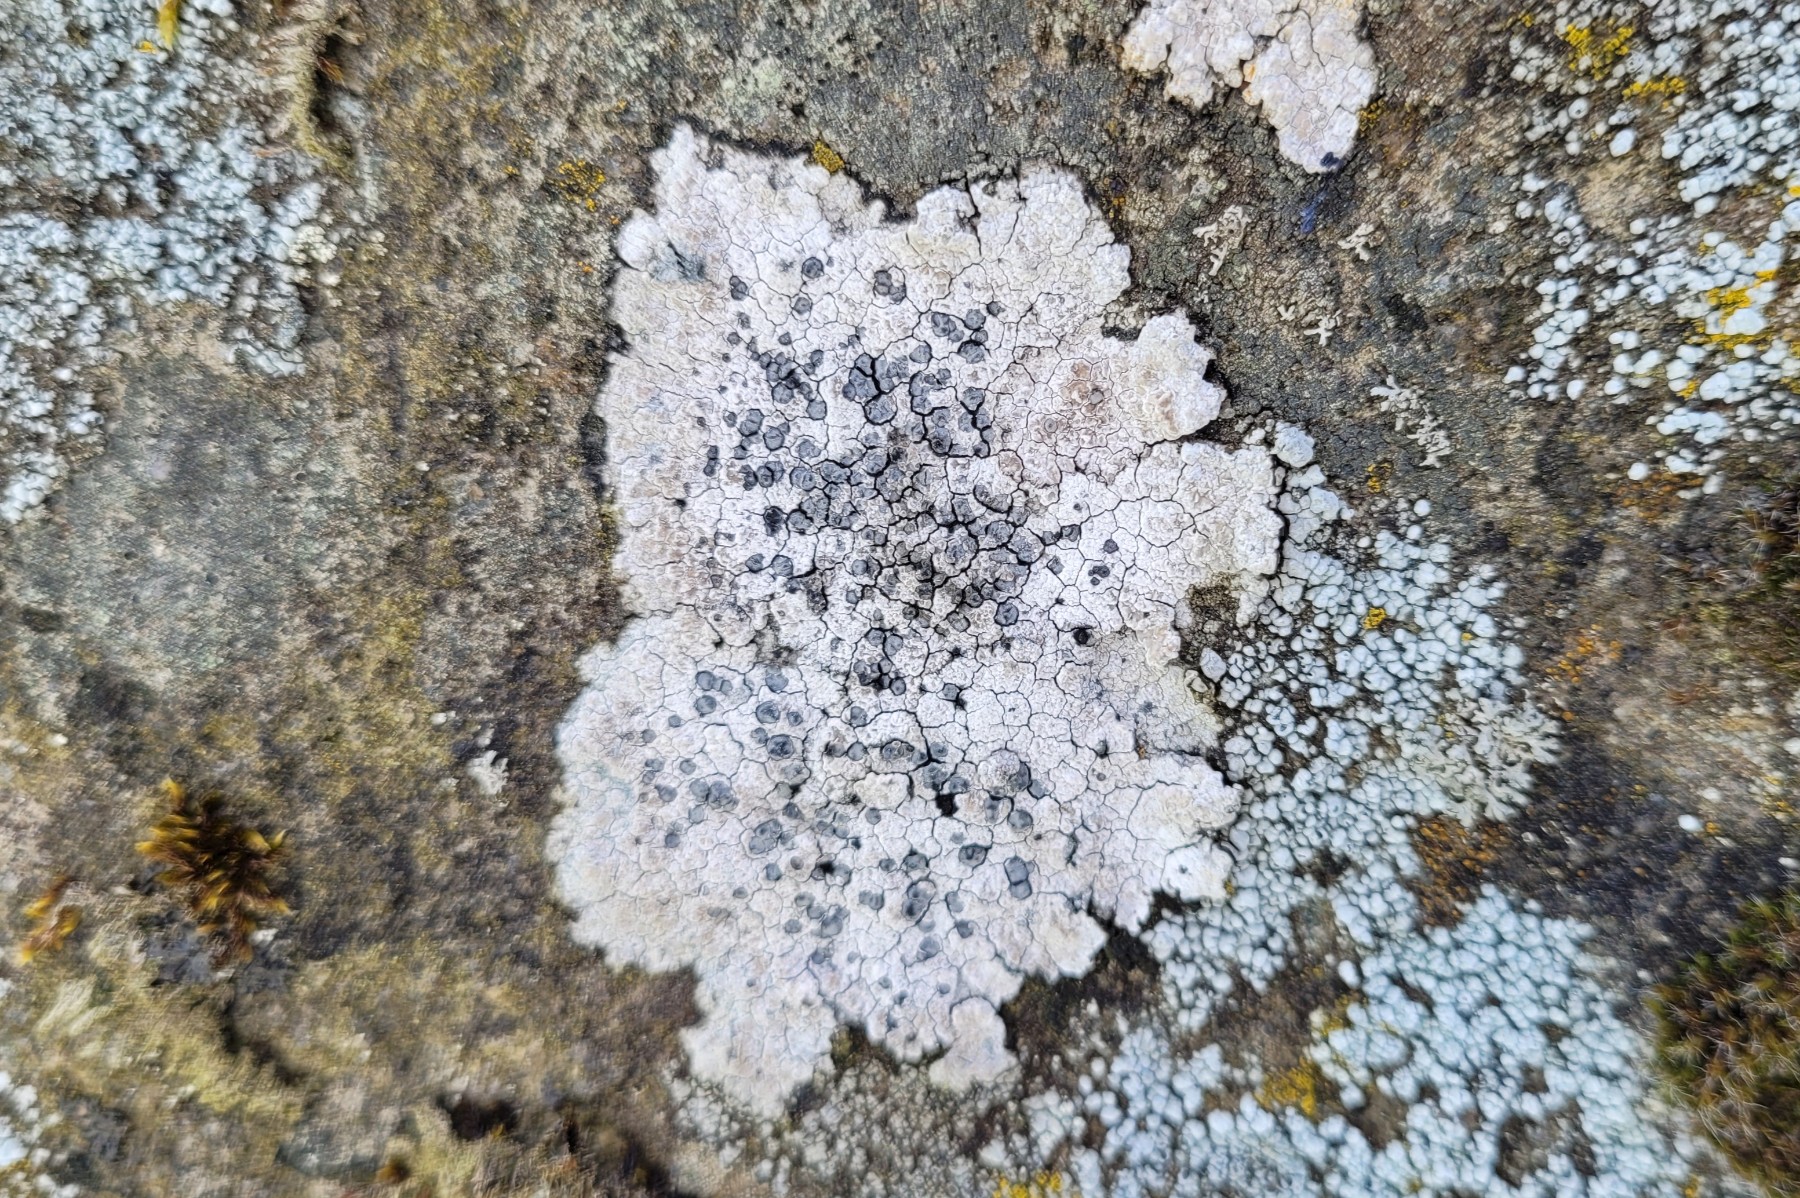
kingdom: Fungi
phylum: Ascomycota
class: Lecanoromycetes
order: Lecideales
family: Lecideaceae
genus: Lecidea
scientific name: Lecidea fuscoatra
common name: rudret skivelav
